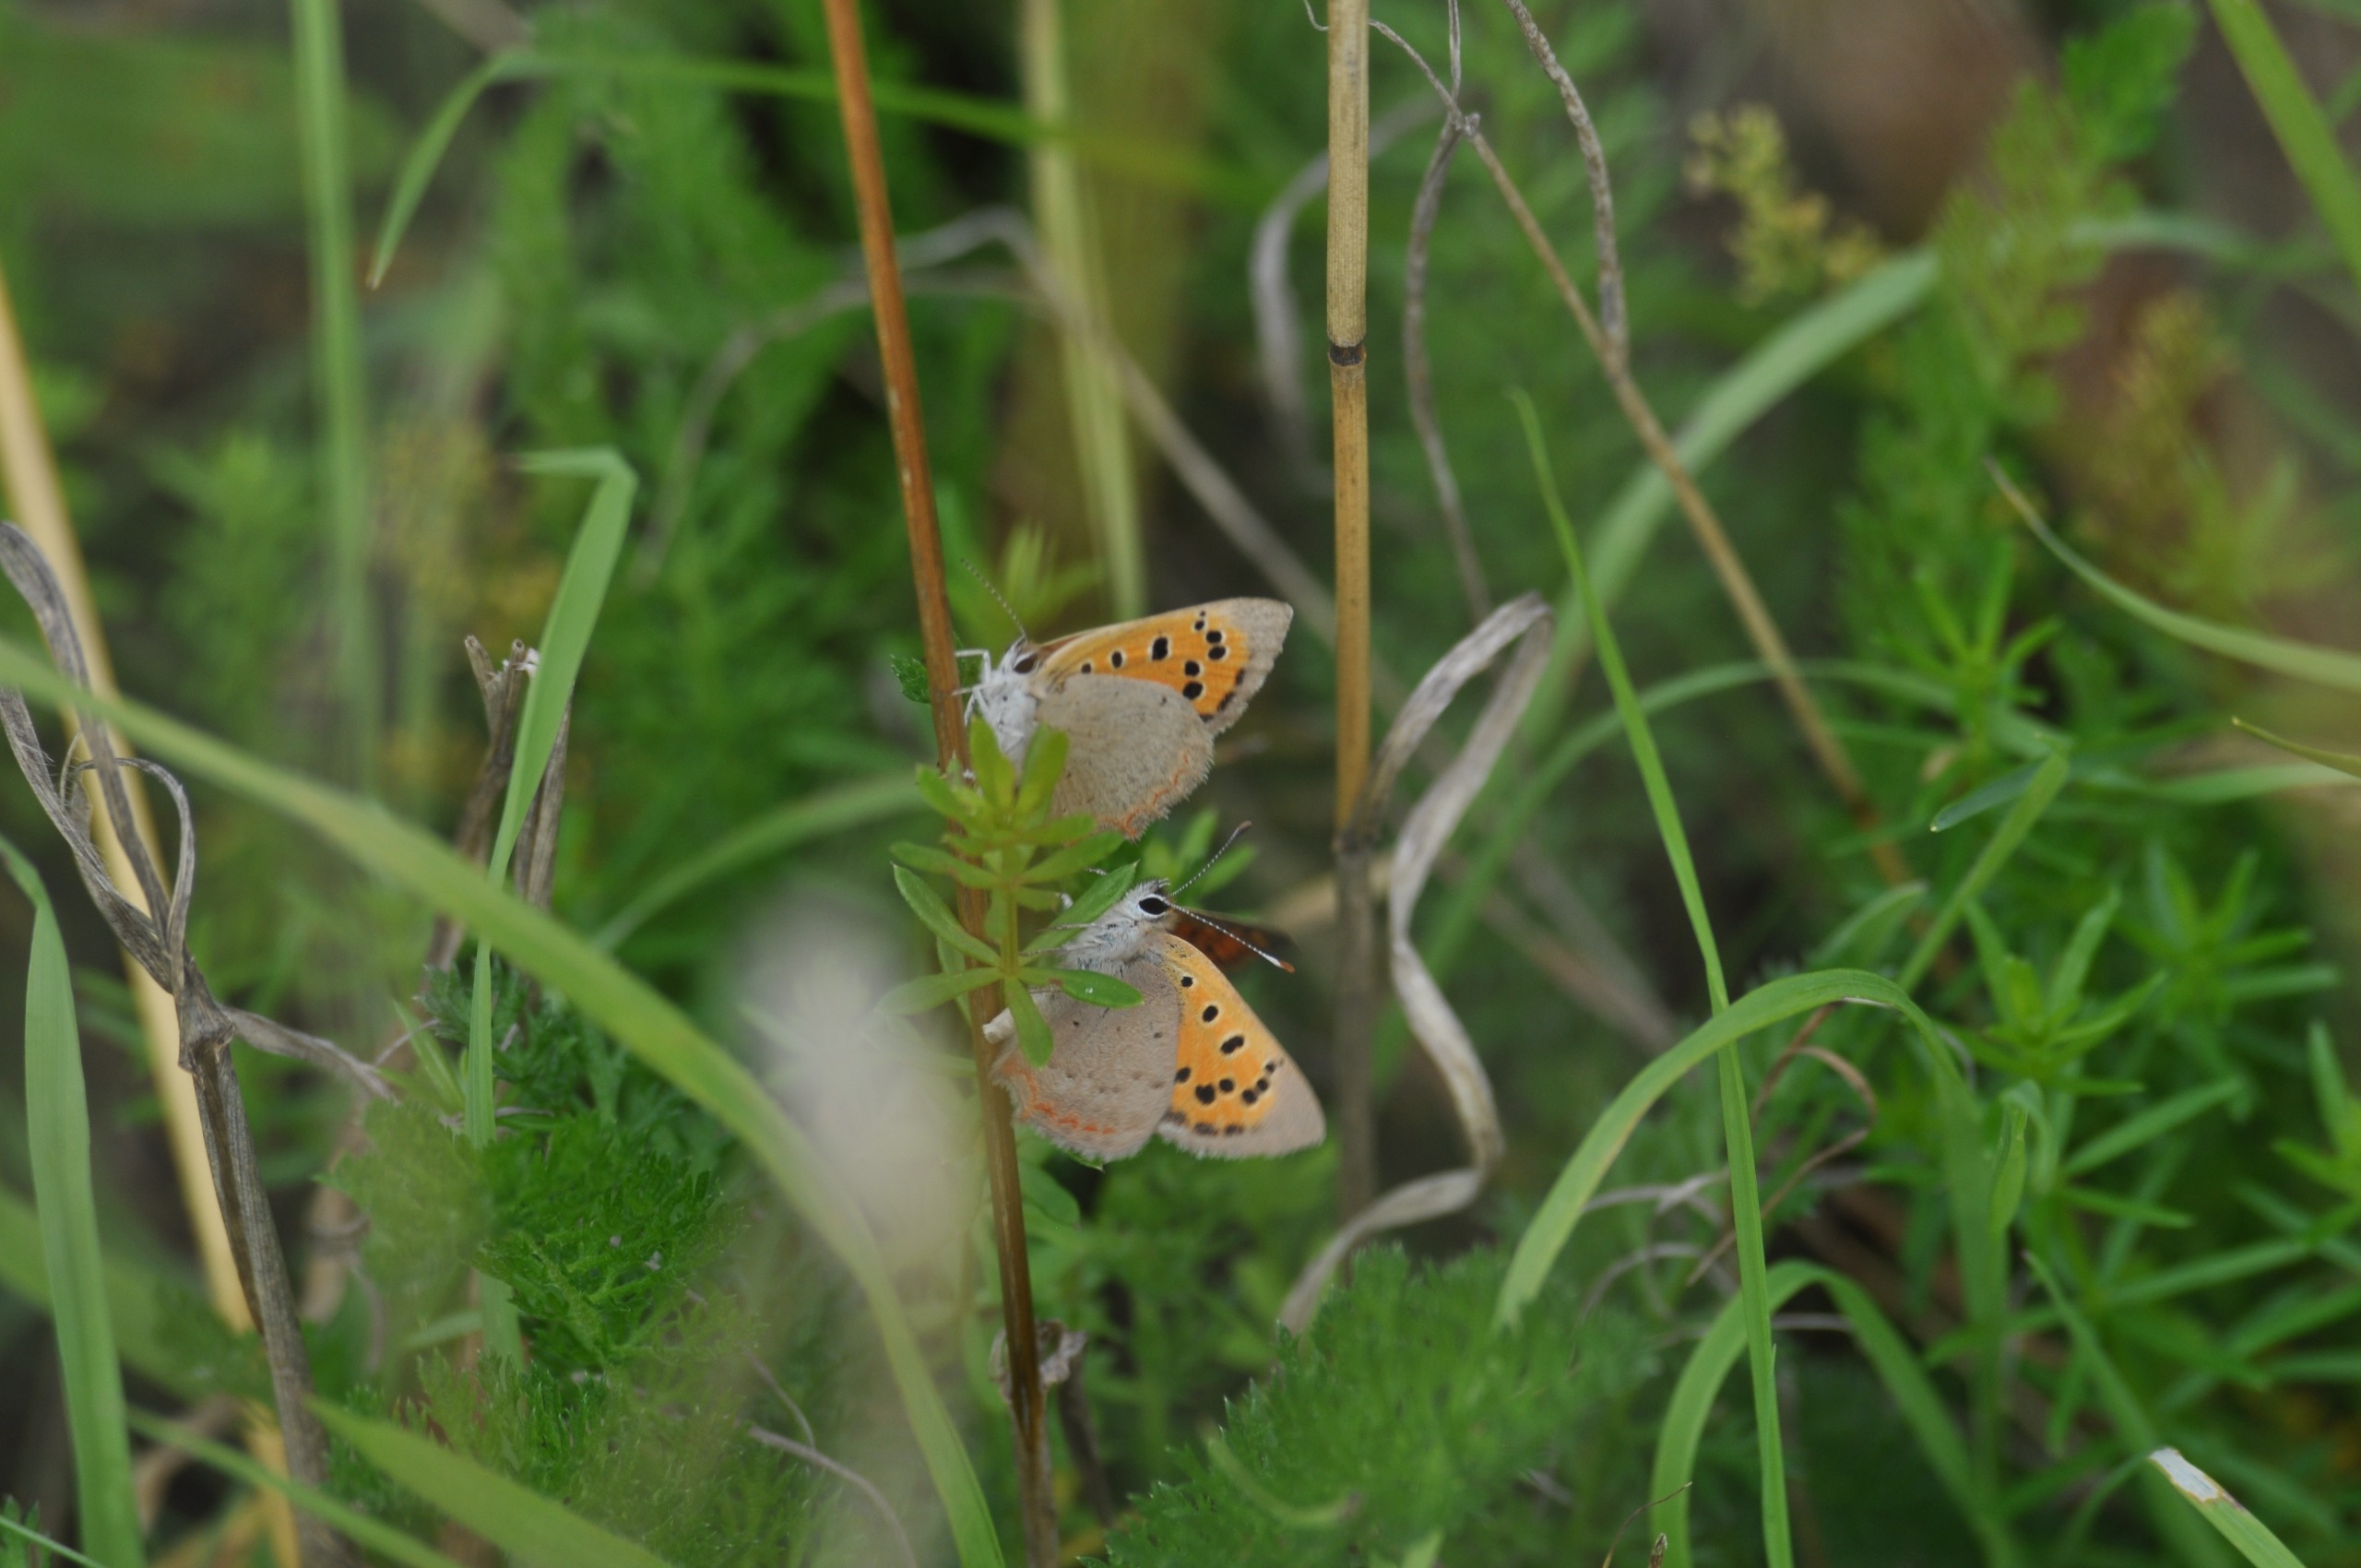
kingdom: Animalia
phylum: Arthropoda
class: Insecta
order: Lepidoptera
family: Lycaenidae
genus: Lycaena
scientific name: Lycaena phlaeas
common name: Lille ildfugl
